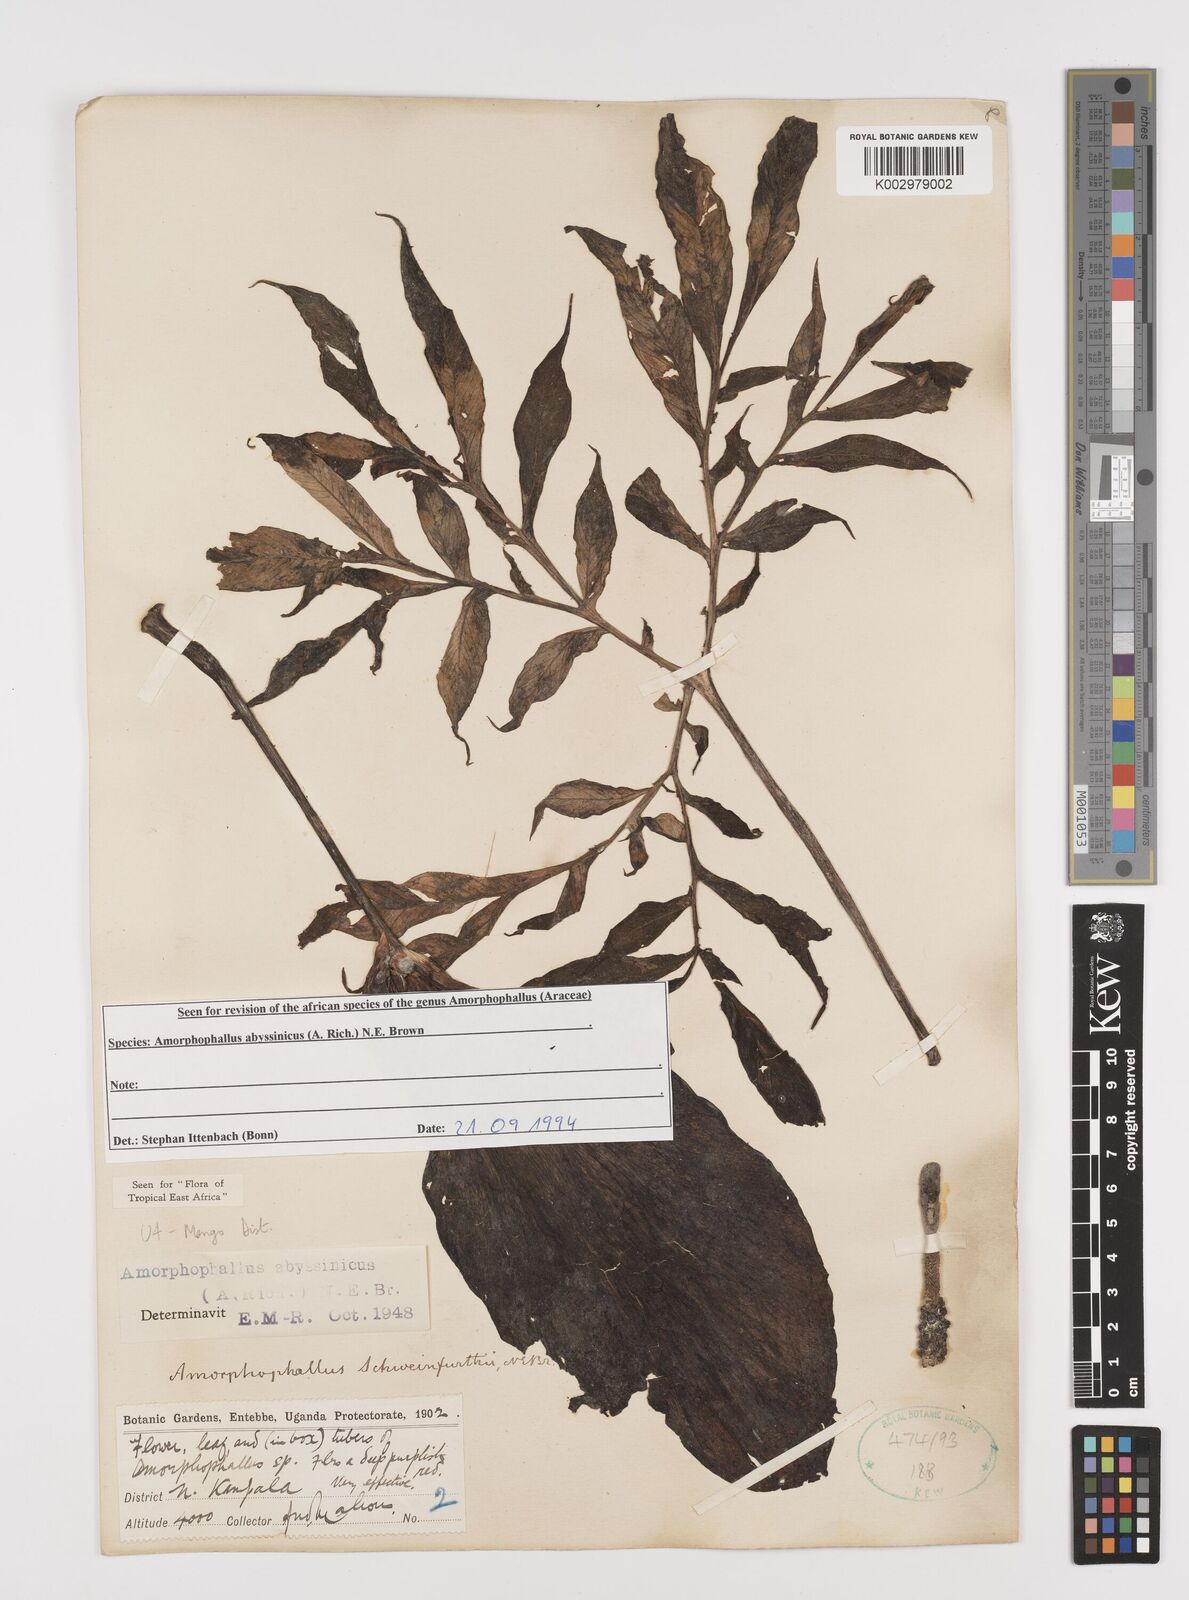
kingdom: Plantae
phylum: Tracheophyta
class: Liliopsida
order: Alismatales
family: Araceae
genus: Amorphophallus
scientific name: Amorphophallus abyssinicus
